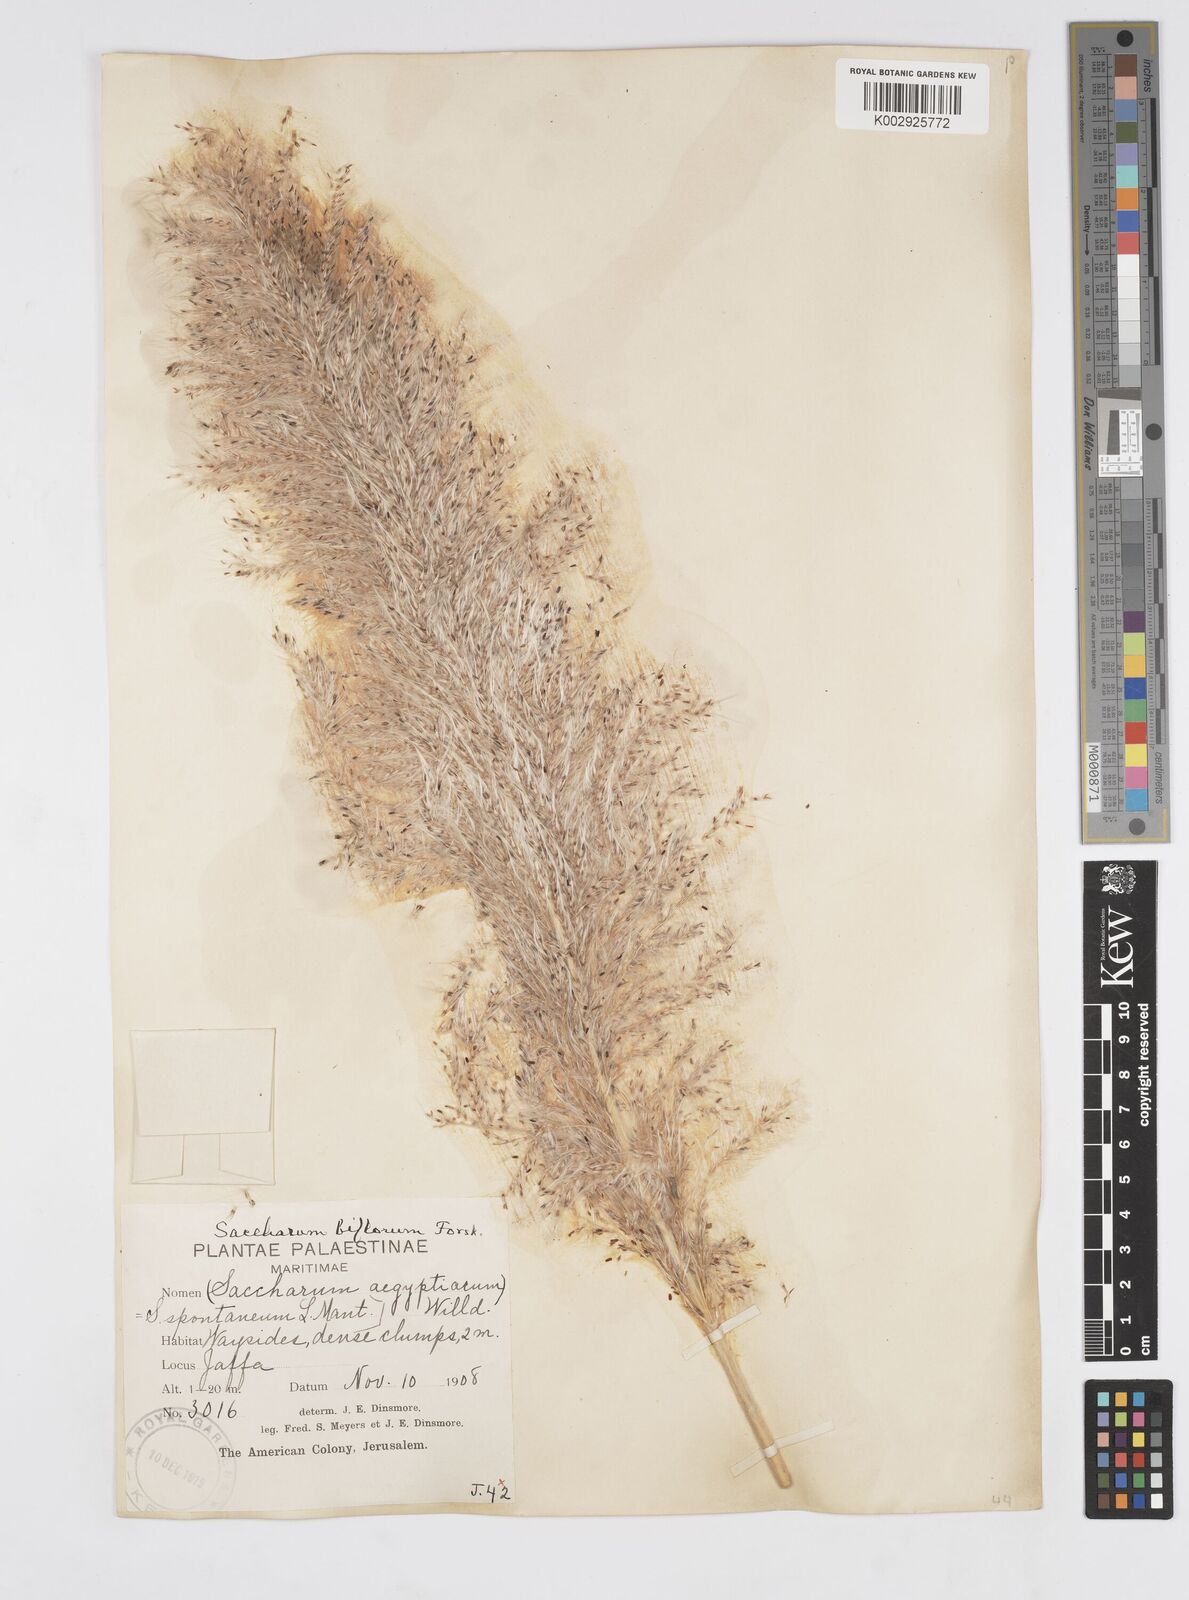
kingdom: Plantae
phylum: Tracheophyta
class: Liliopsida
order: Poales
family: Poaceae
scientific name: Poaceae
